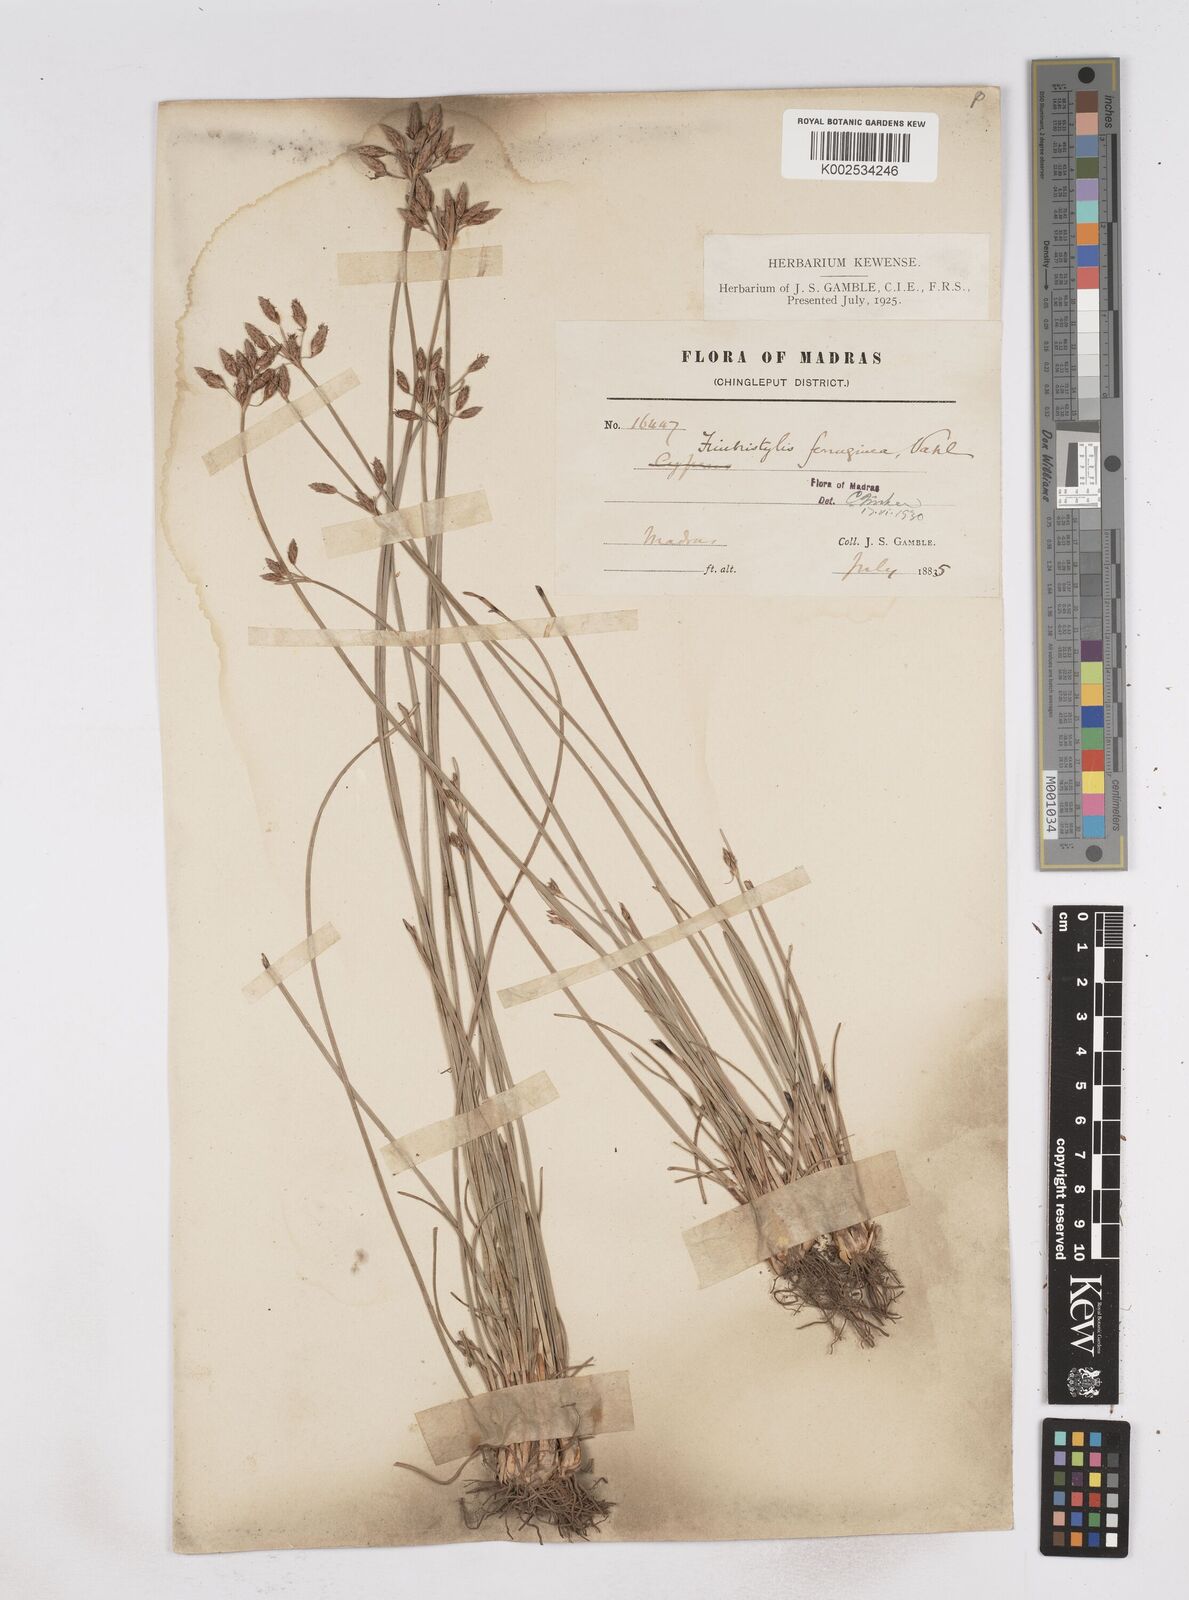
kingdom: Plantae
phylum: Tracheophyta
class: Liliopsida
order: Poales
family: Cyperaceae
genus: Fimbristylis
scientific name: Fimbristylis ferruginea
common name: West indian fimbry
